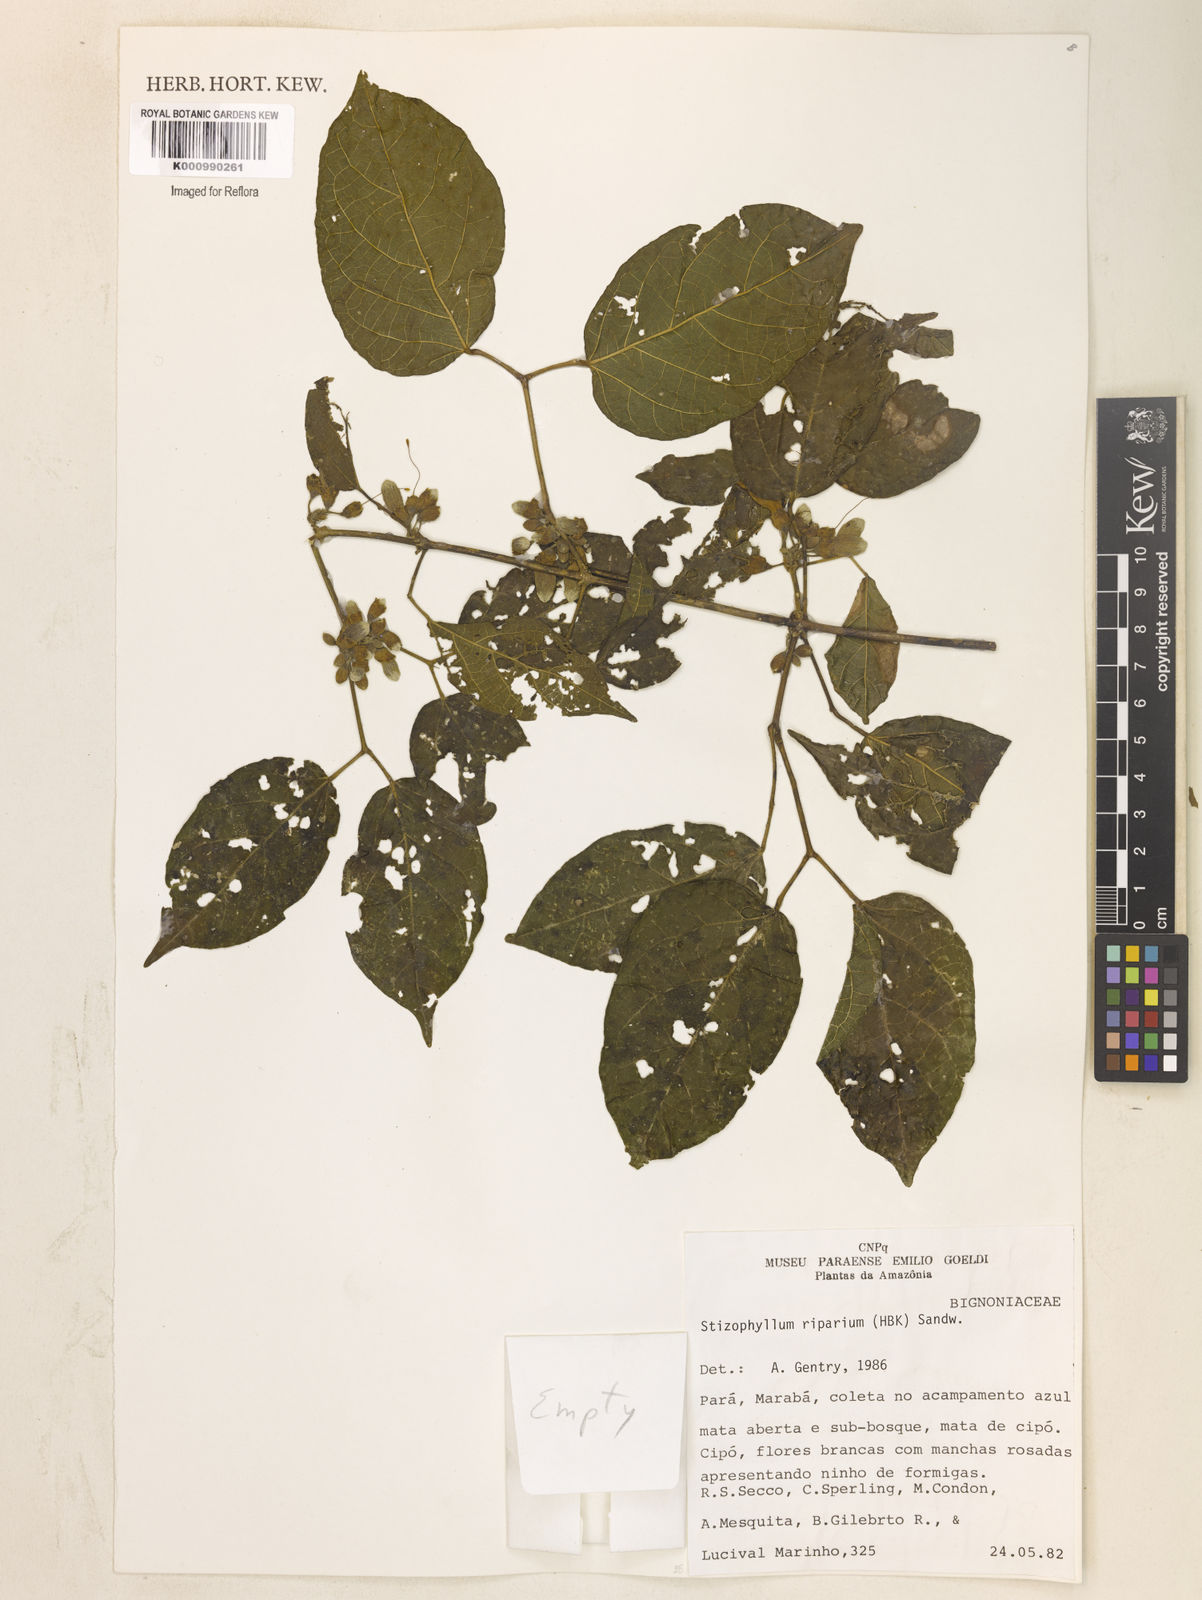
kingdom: Plantae
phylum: Tracheophyta
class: Magnoliopsida
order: Lamiales
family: Bignoniaceae
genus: Stizophyllum
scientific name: Stizophyllum riparium
